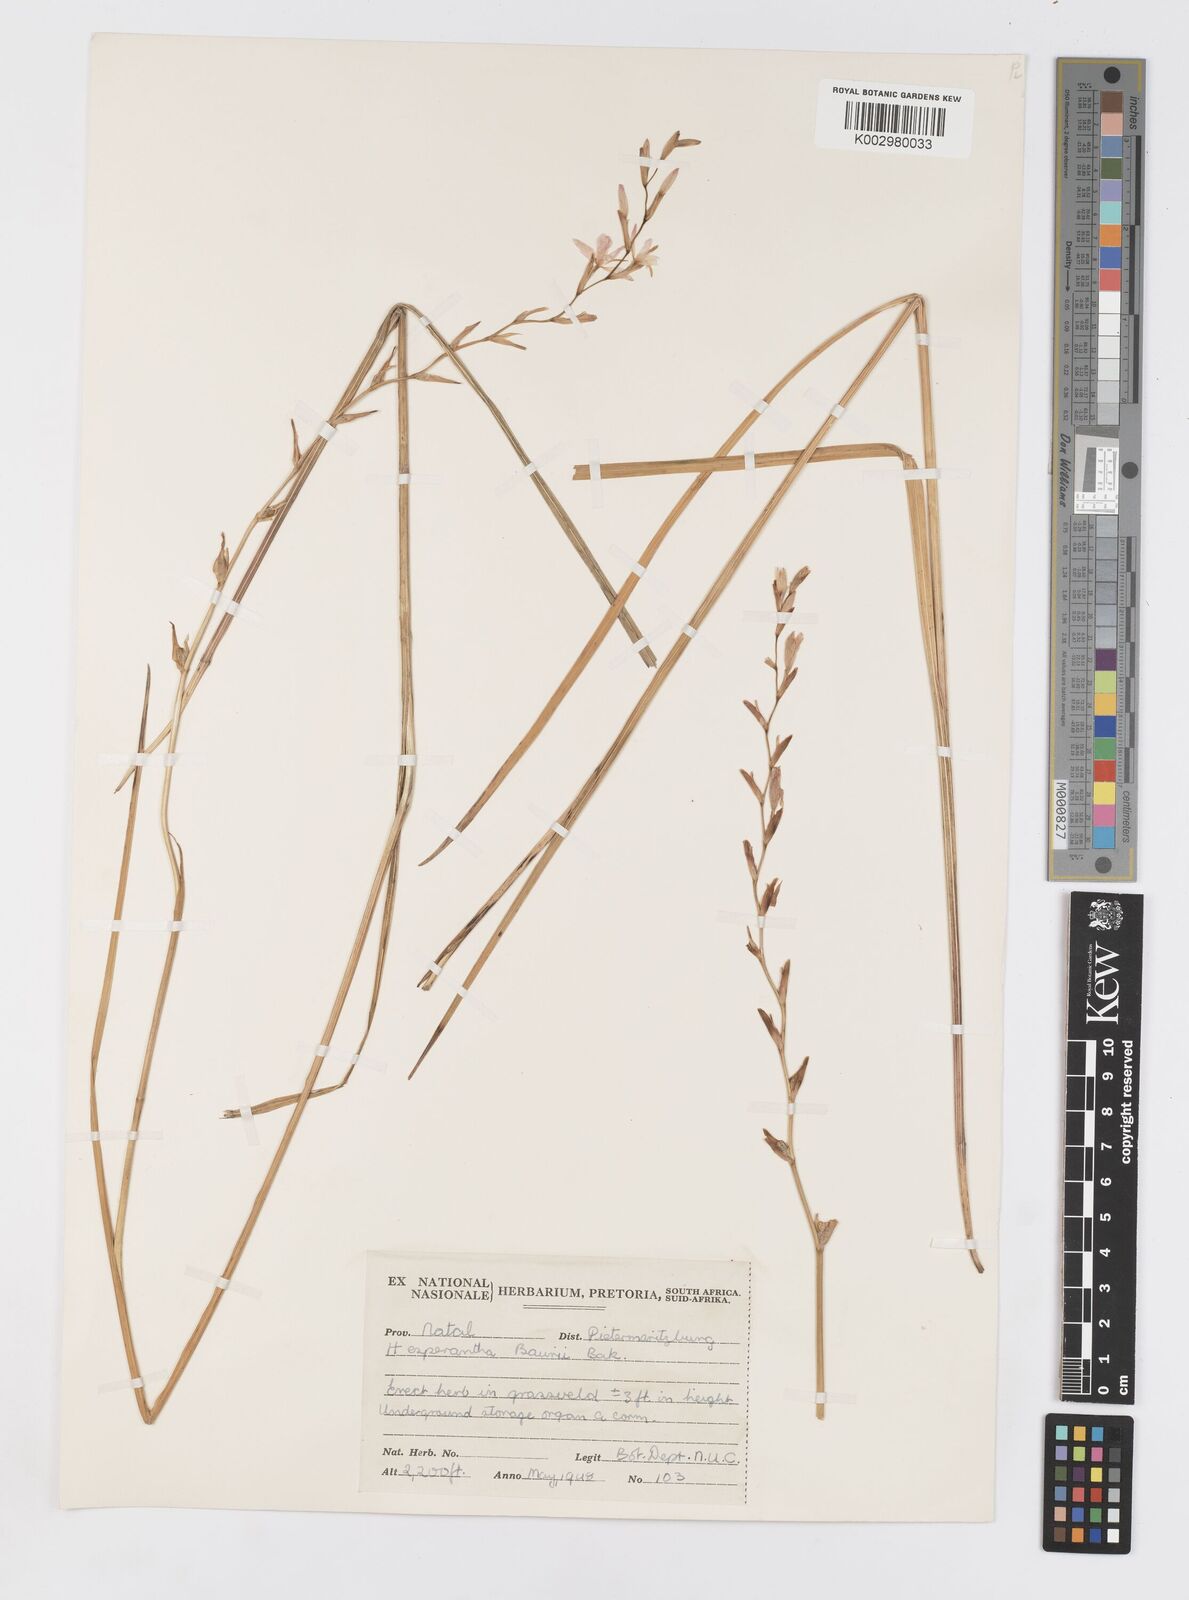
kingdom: Plantae
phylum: Tracheophyta
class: Liliopsida
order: Asparagales
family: Iridaceae
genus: Hesperantha
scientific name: Hesperantha baurii
